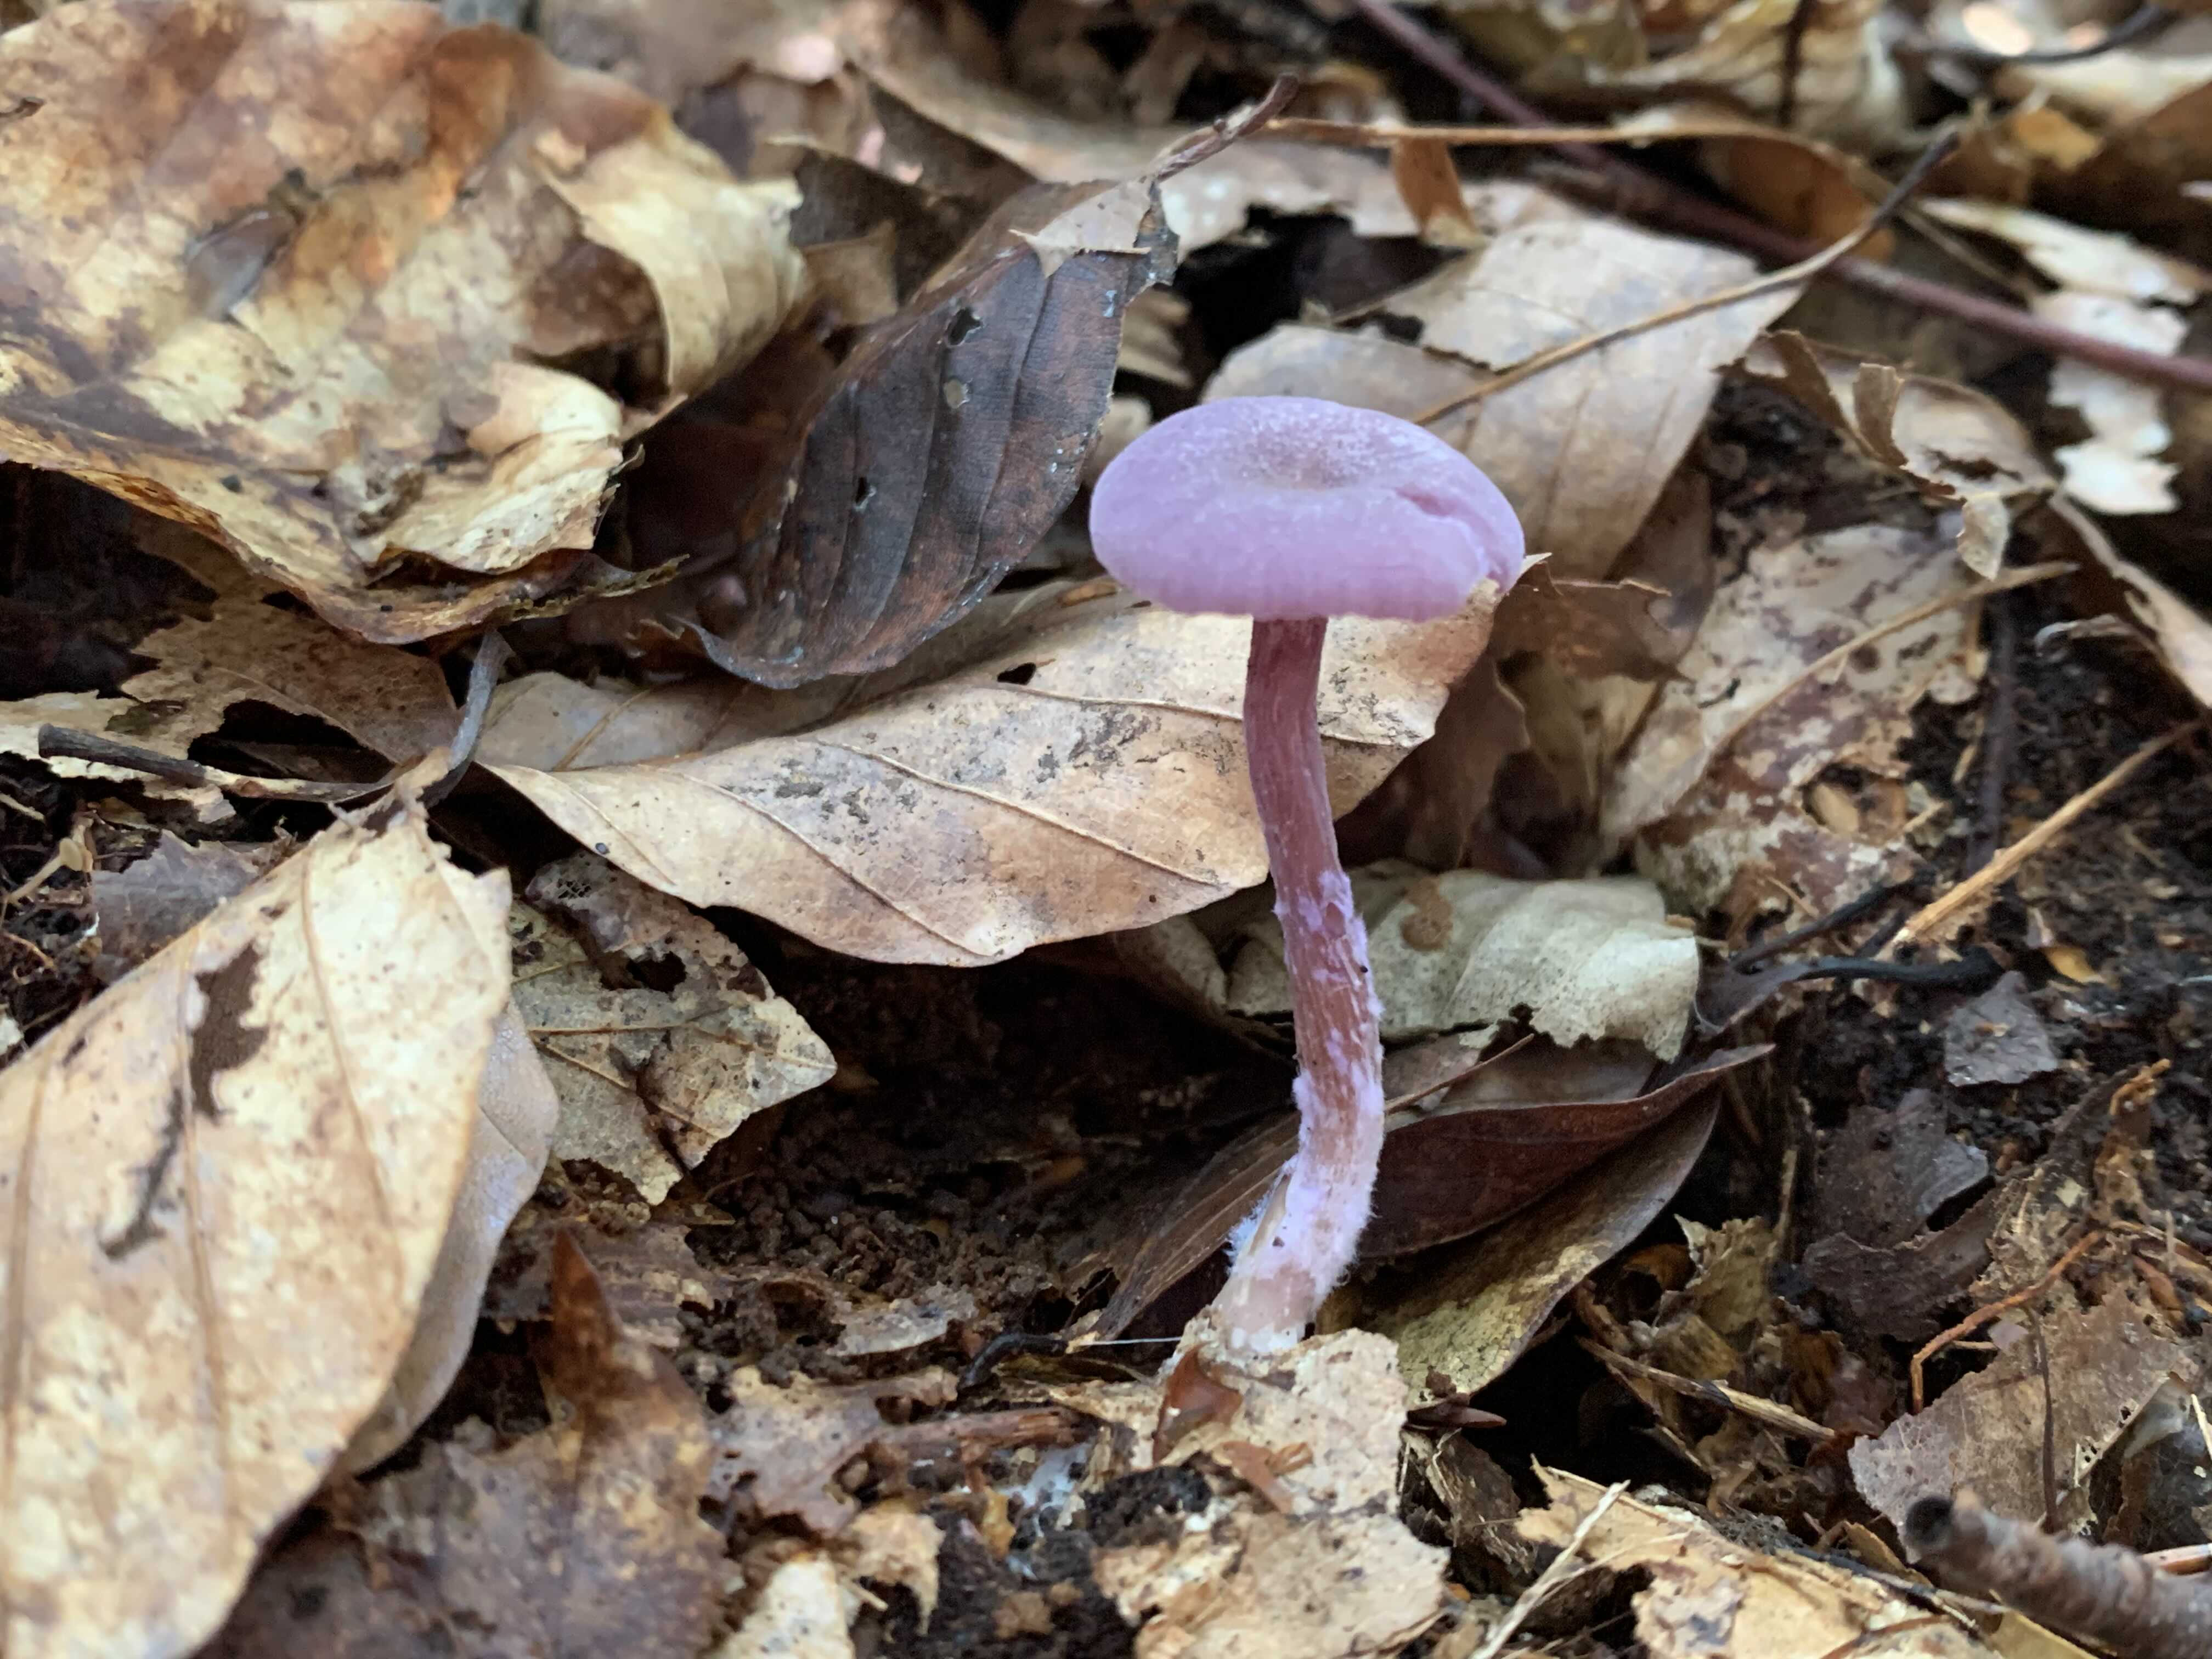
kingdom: Fungi
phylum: Basidiomycota
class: Agaricomycetes
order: Agaricales
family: Hydnangiaceae
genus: Laccaria
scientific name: Laccaria amethystina
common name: violet ametysthat
